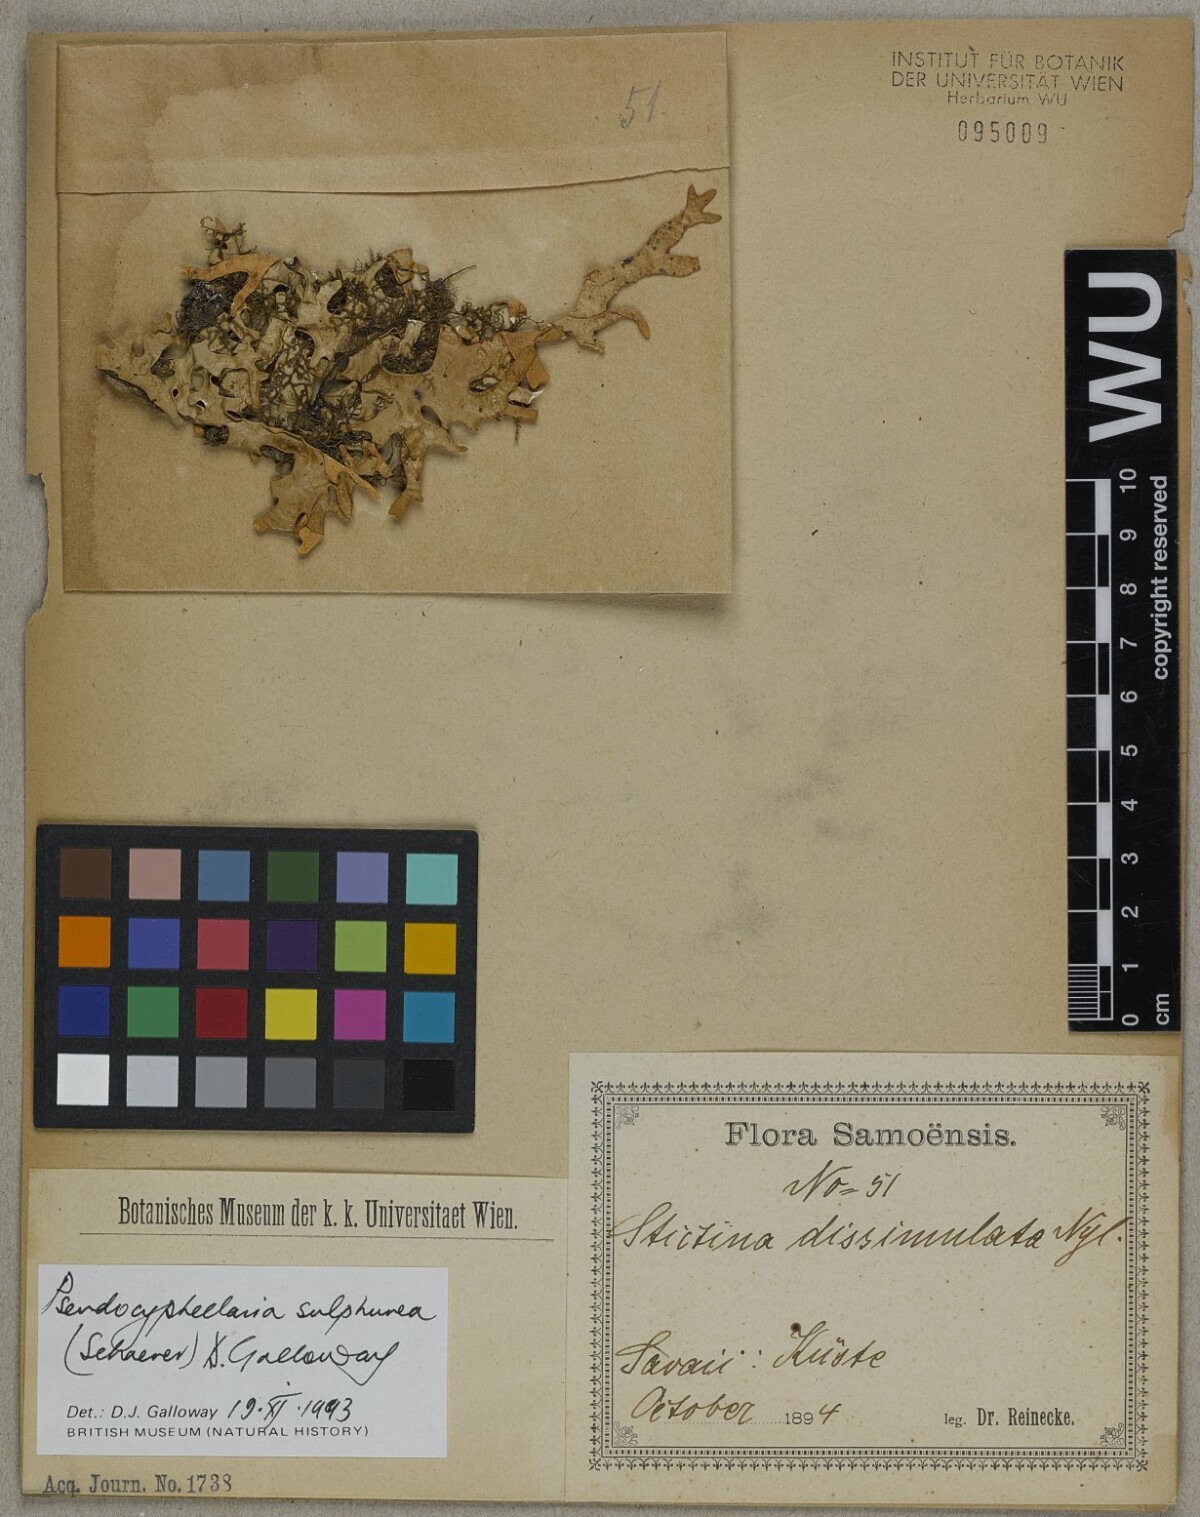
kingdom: Fungi
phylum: Ascomycota
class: Lecanoromycetes
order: Peltigerales
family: Lobariaceae
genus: Pseudocyphellaria
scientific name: Pseudocyphellaria sulphurea
